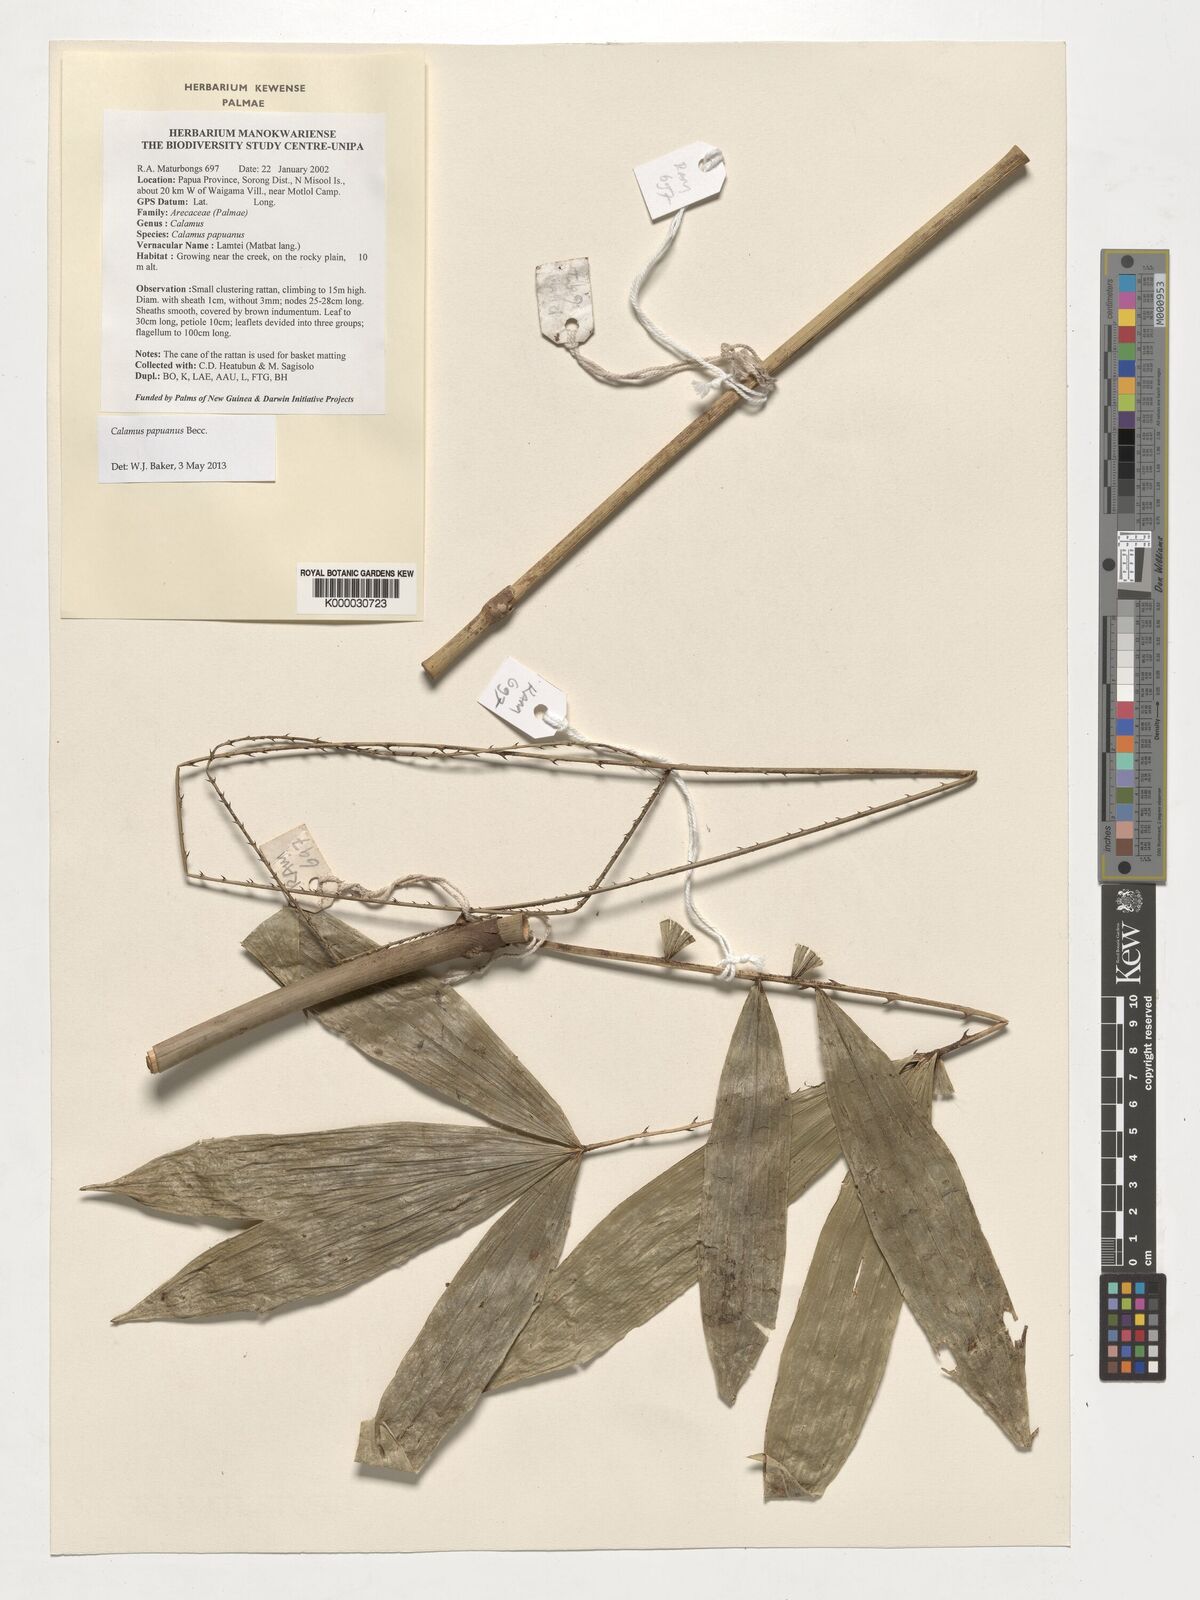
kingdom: Plantae
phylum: Tracheophyta
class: Liliopsida
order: Arecales
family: Arecaceae
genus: Calamus
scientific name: Calamus papuanus
